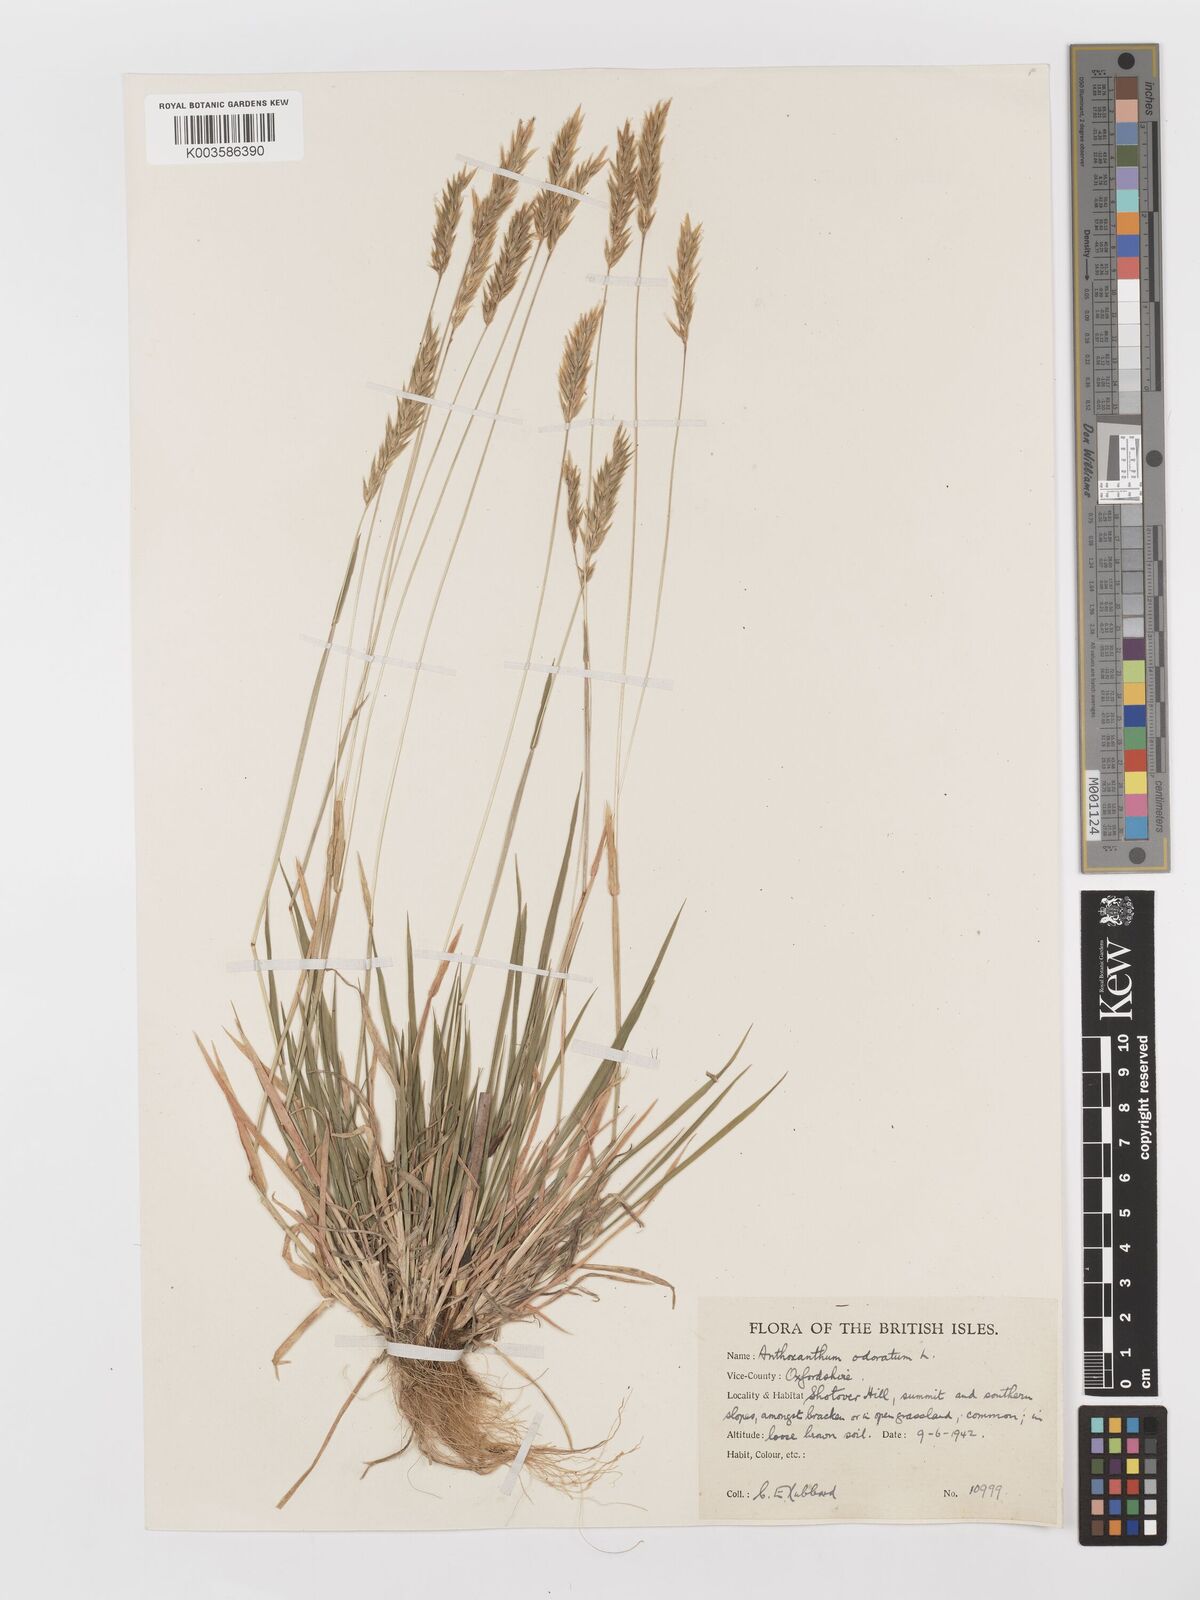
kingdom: Plantae
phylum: Tracheophyta
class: Liliopsida
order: Poales
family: Poaceae
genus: Anthoxanthum
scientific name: Anthoxanthum odoratum
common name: Sweet vernalgrass
